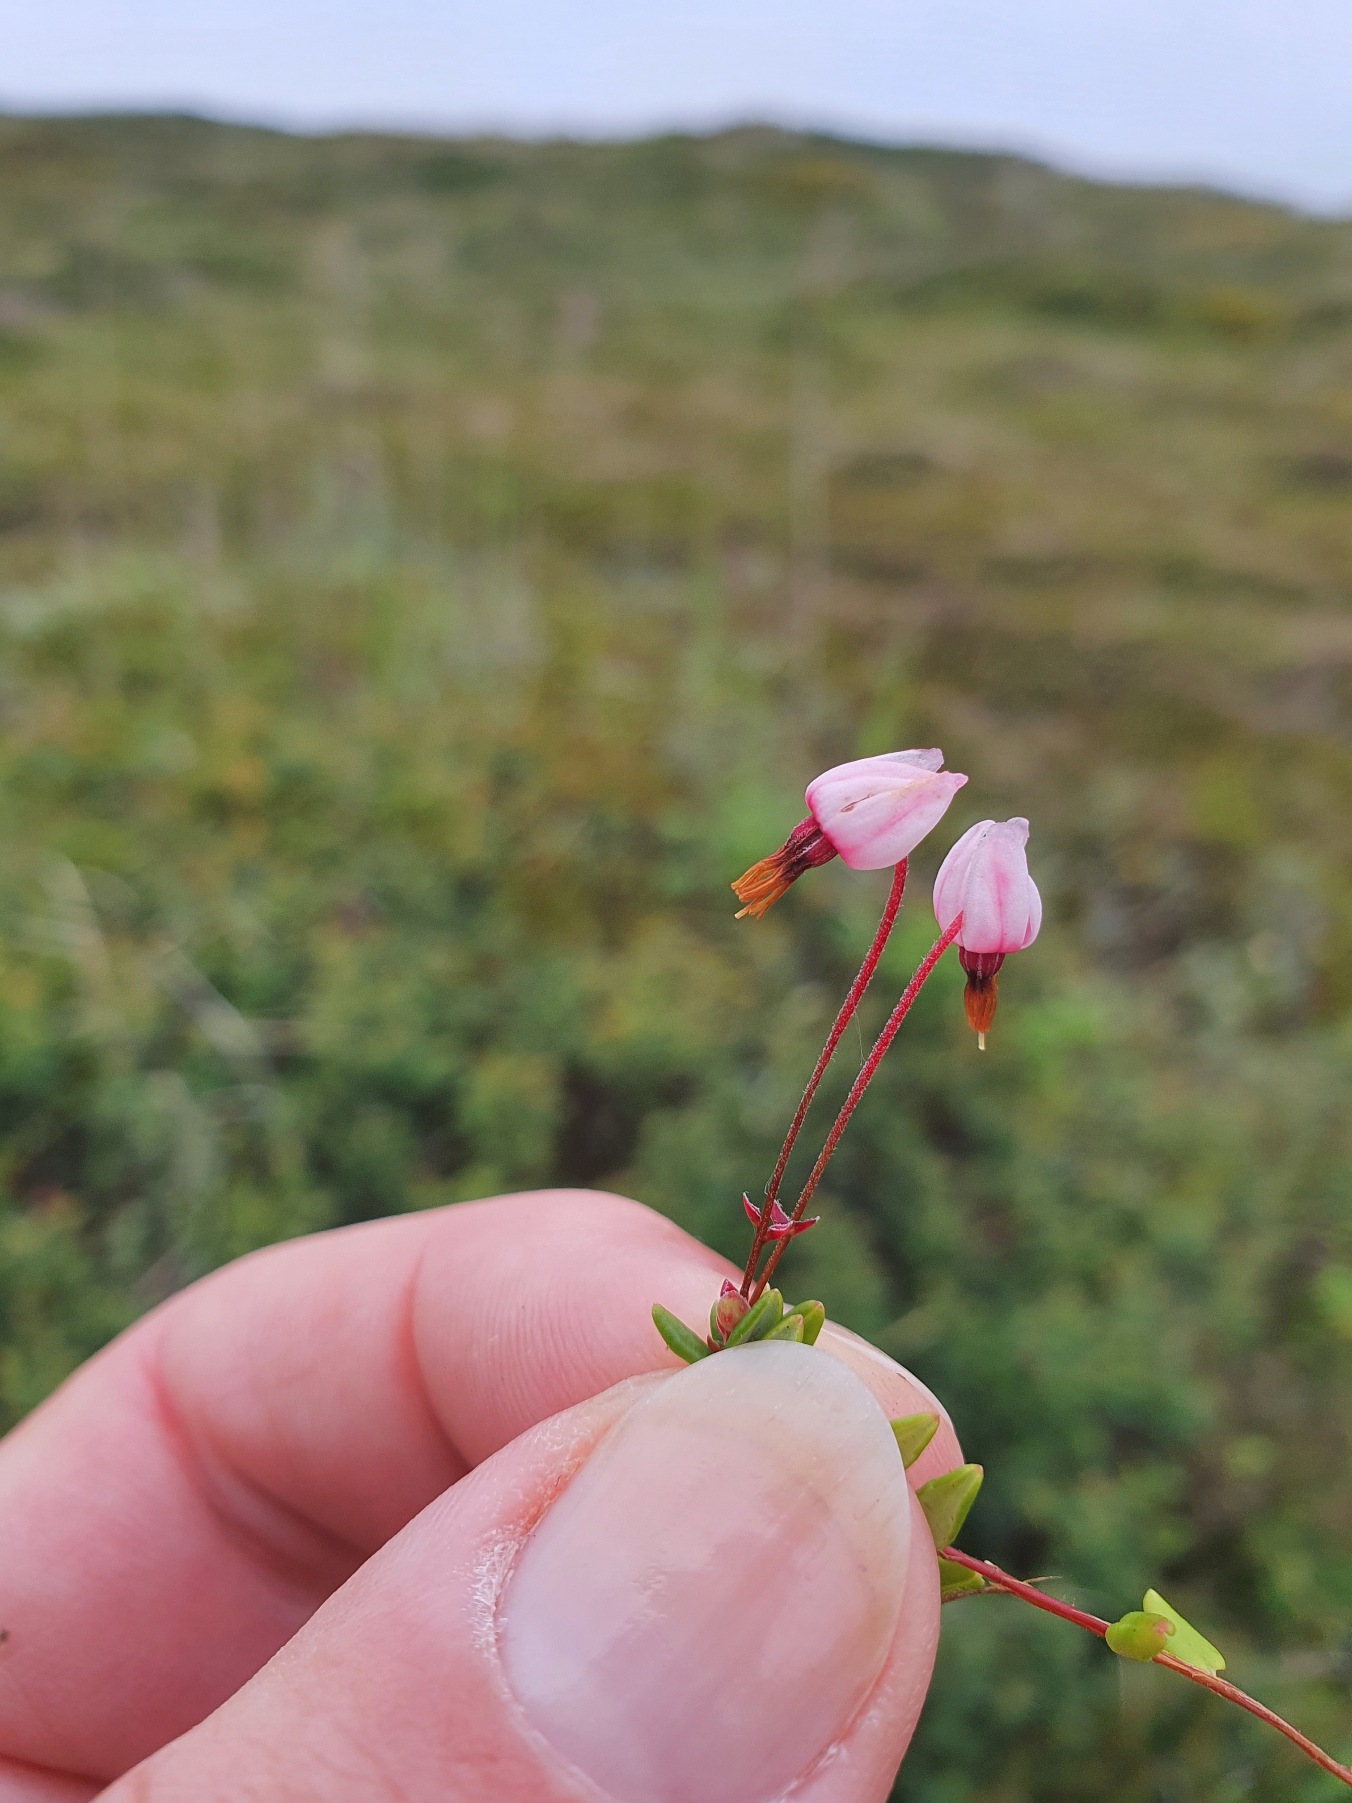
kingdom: Plantae
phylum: Tracheophyta
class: Magnoliopsida
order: Ericales
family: Ericaceae
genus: Vaccinium
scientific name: Vaccinium oxycoccos
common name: Tranebær
